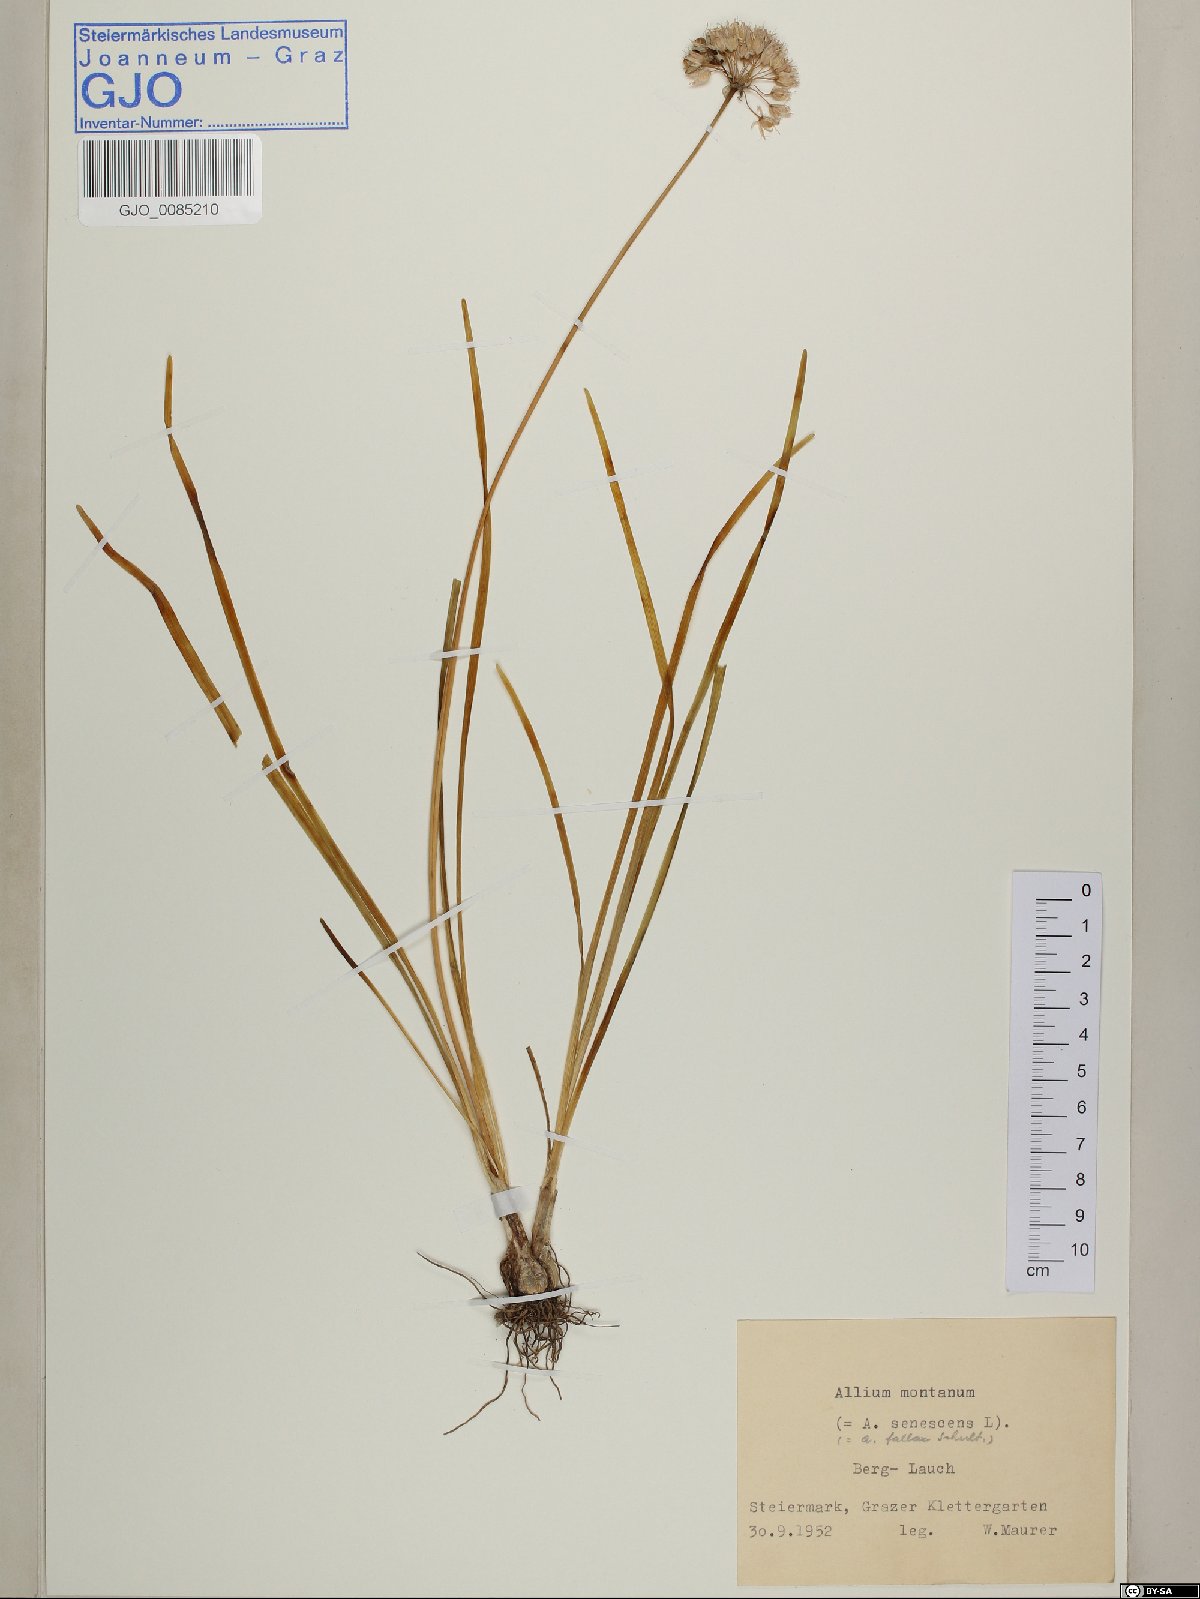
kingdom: Plantae
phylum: Tracheophyta
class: Liliopsida
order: Asparagales
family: Amaryllidaceae
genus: Allium
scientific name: Allium lusitanicum
